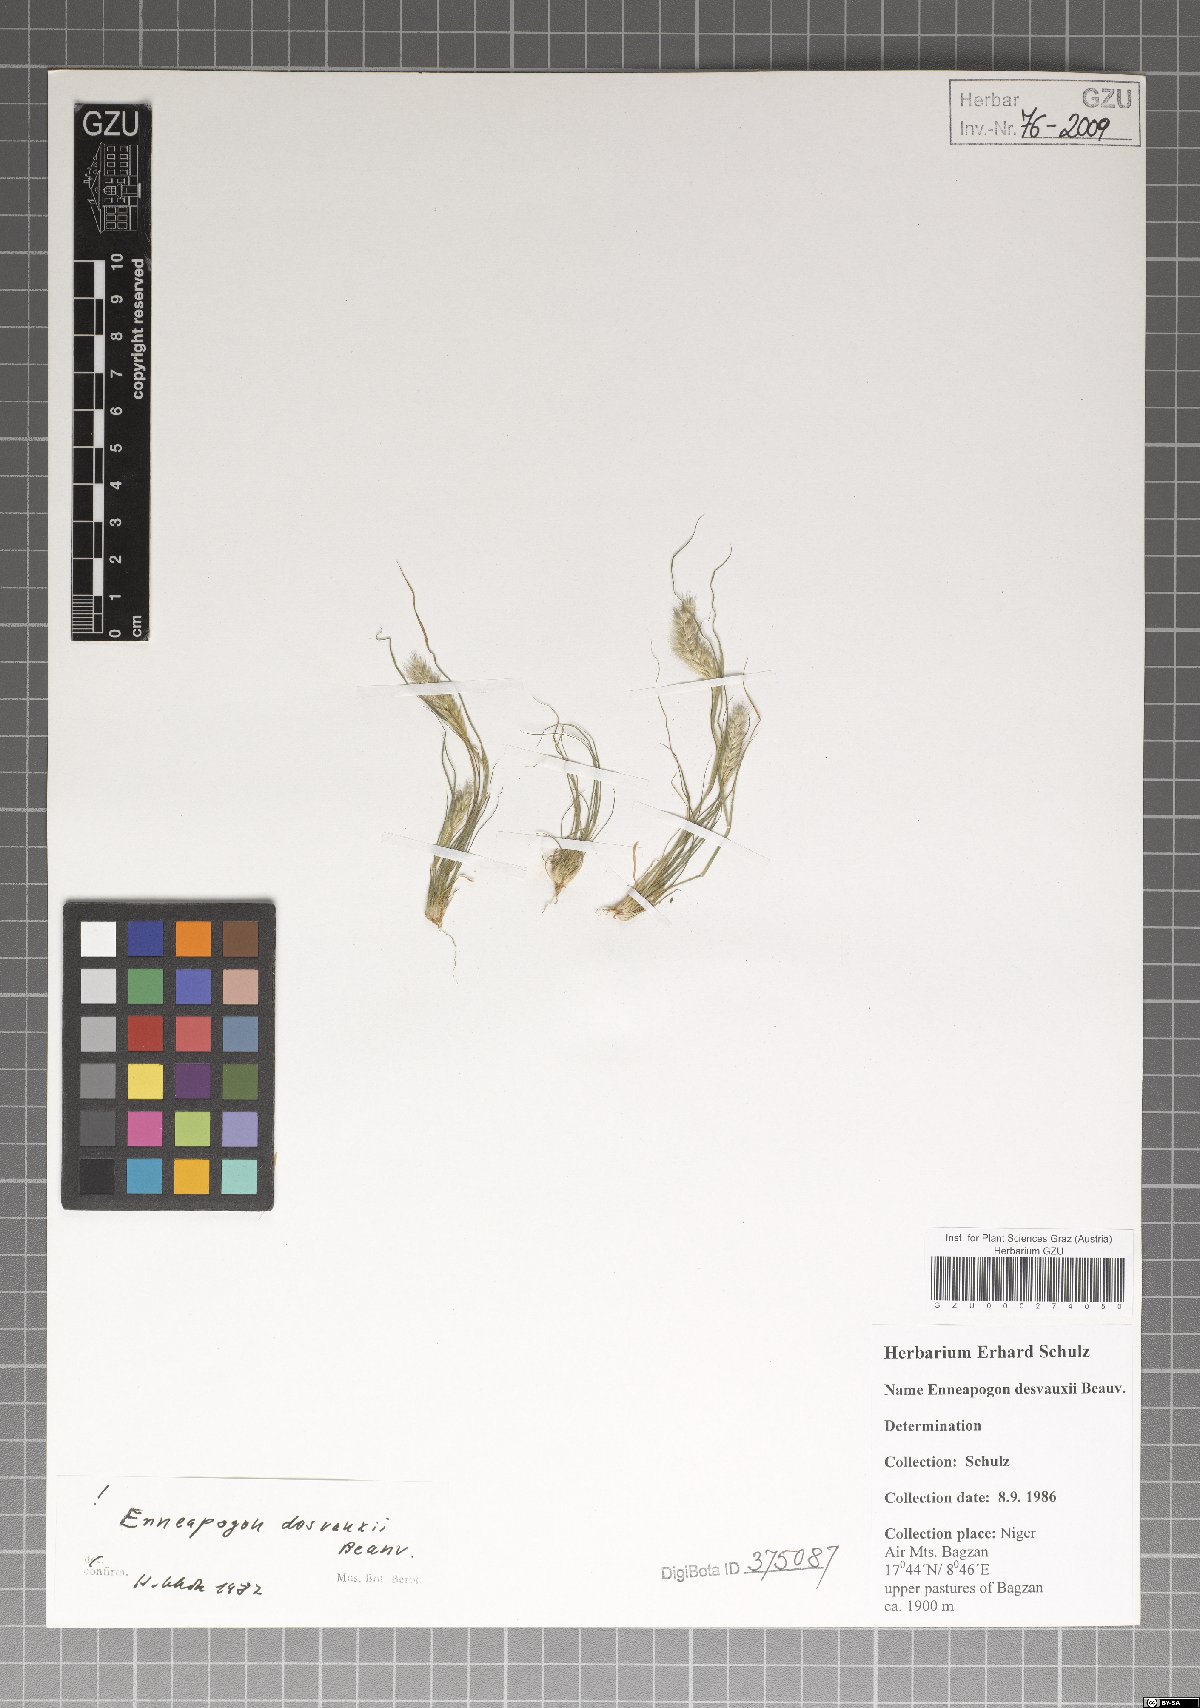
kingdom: Plantae
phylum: Tracheophyta
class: Liliopsida
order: Poales
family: Poaceae
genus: Enneapogon
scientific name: Enneapogon desvauxii
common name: Feather pappus grass
